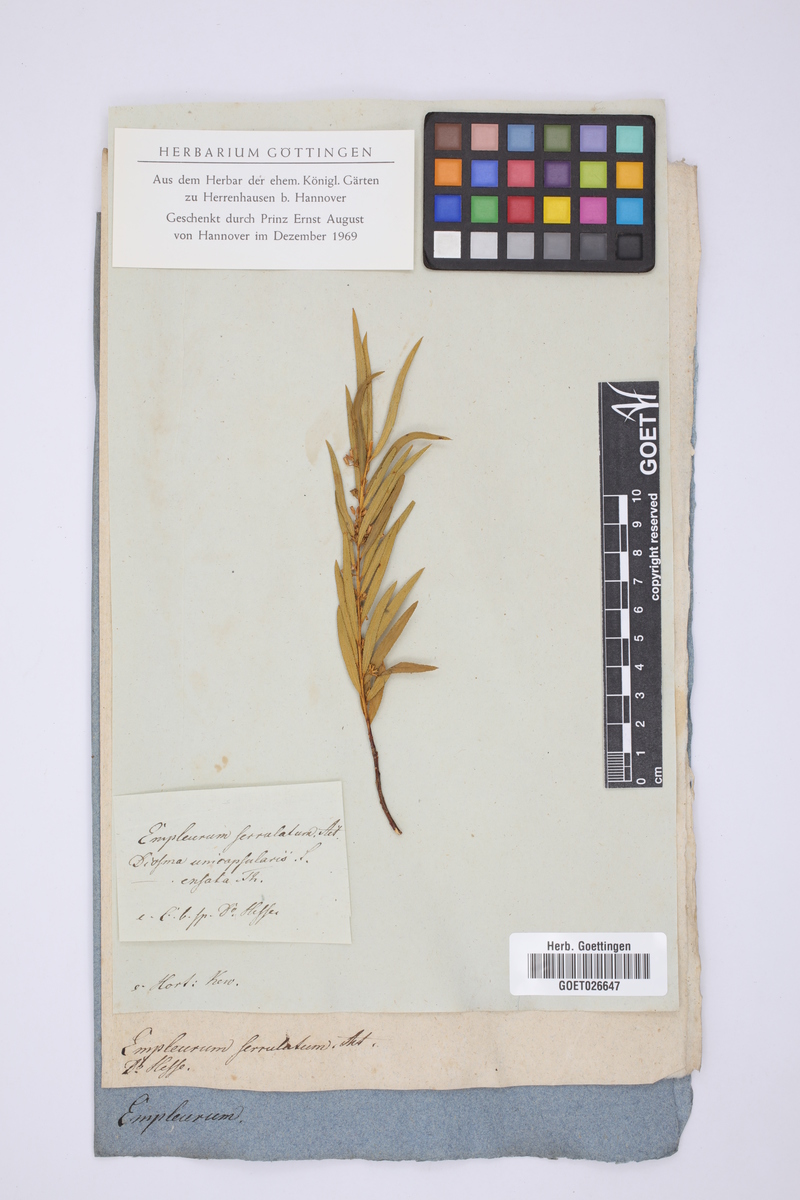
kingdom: Plantae
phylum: Tracheophyta
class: Magnoliopsida
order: Sapindales
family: Rutaceae
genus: Empleurum
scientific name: Empleurum unicapsulare
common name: False buchu
